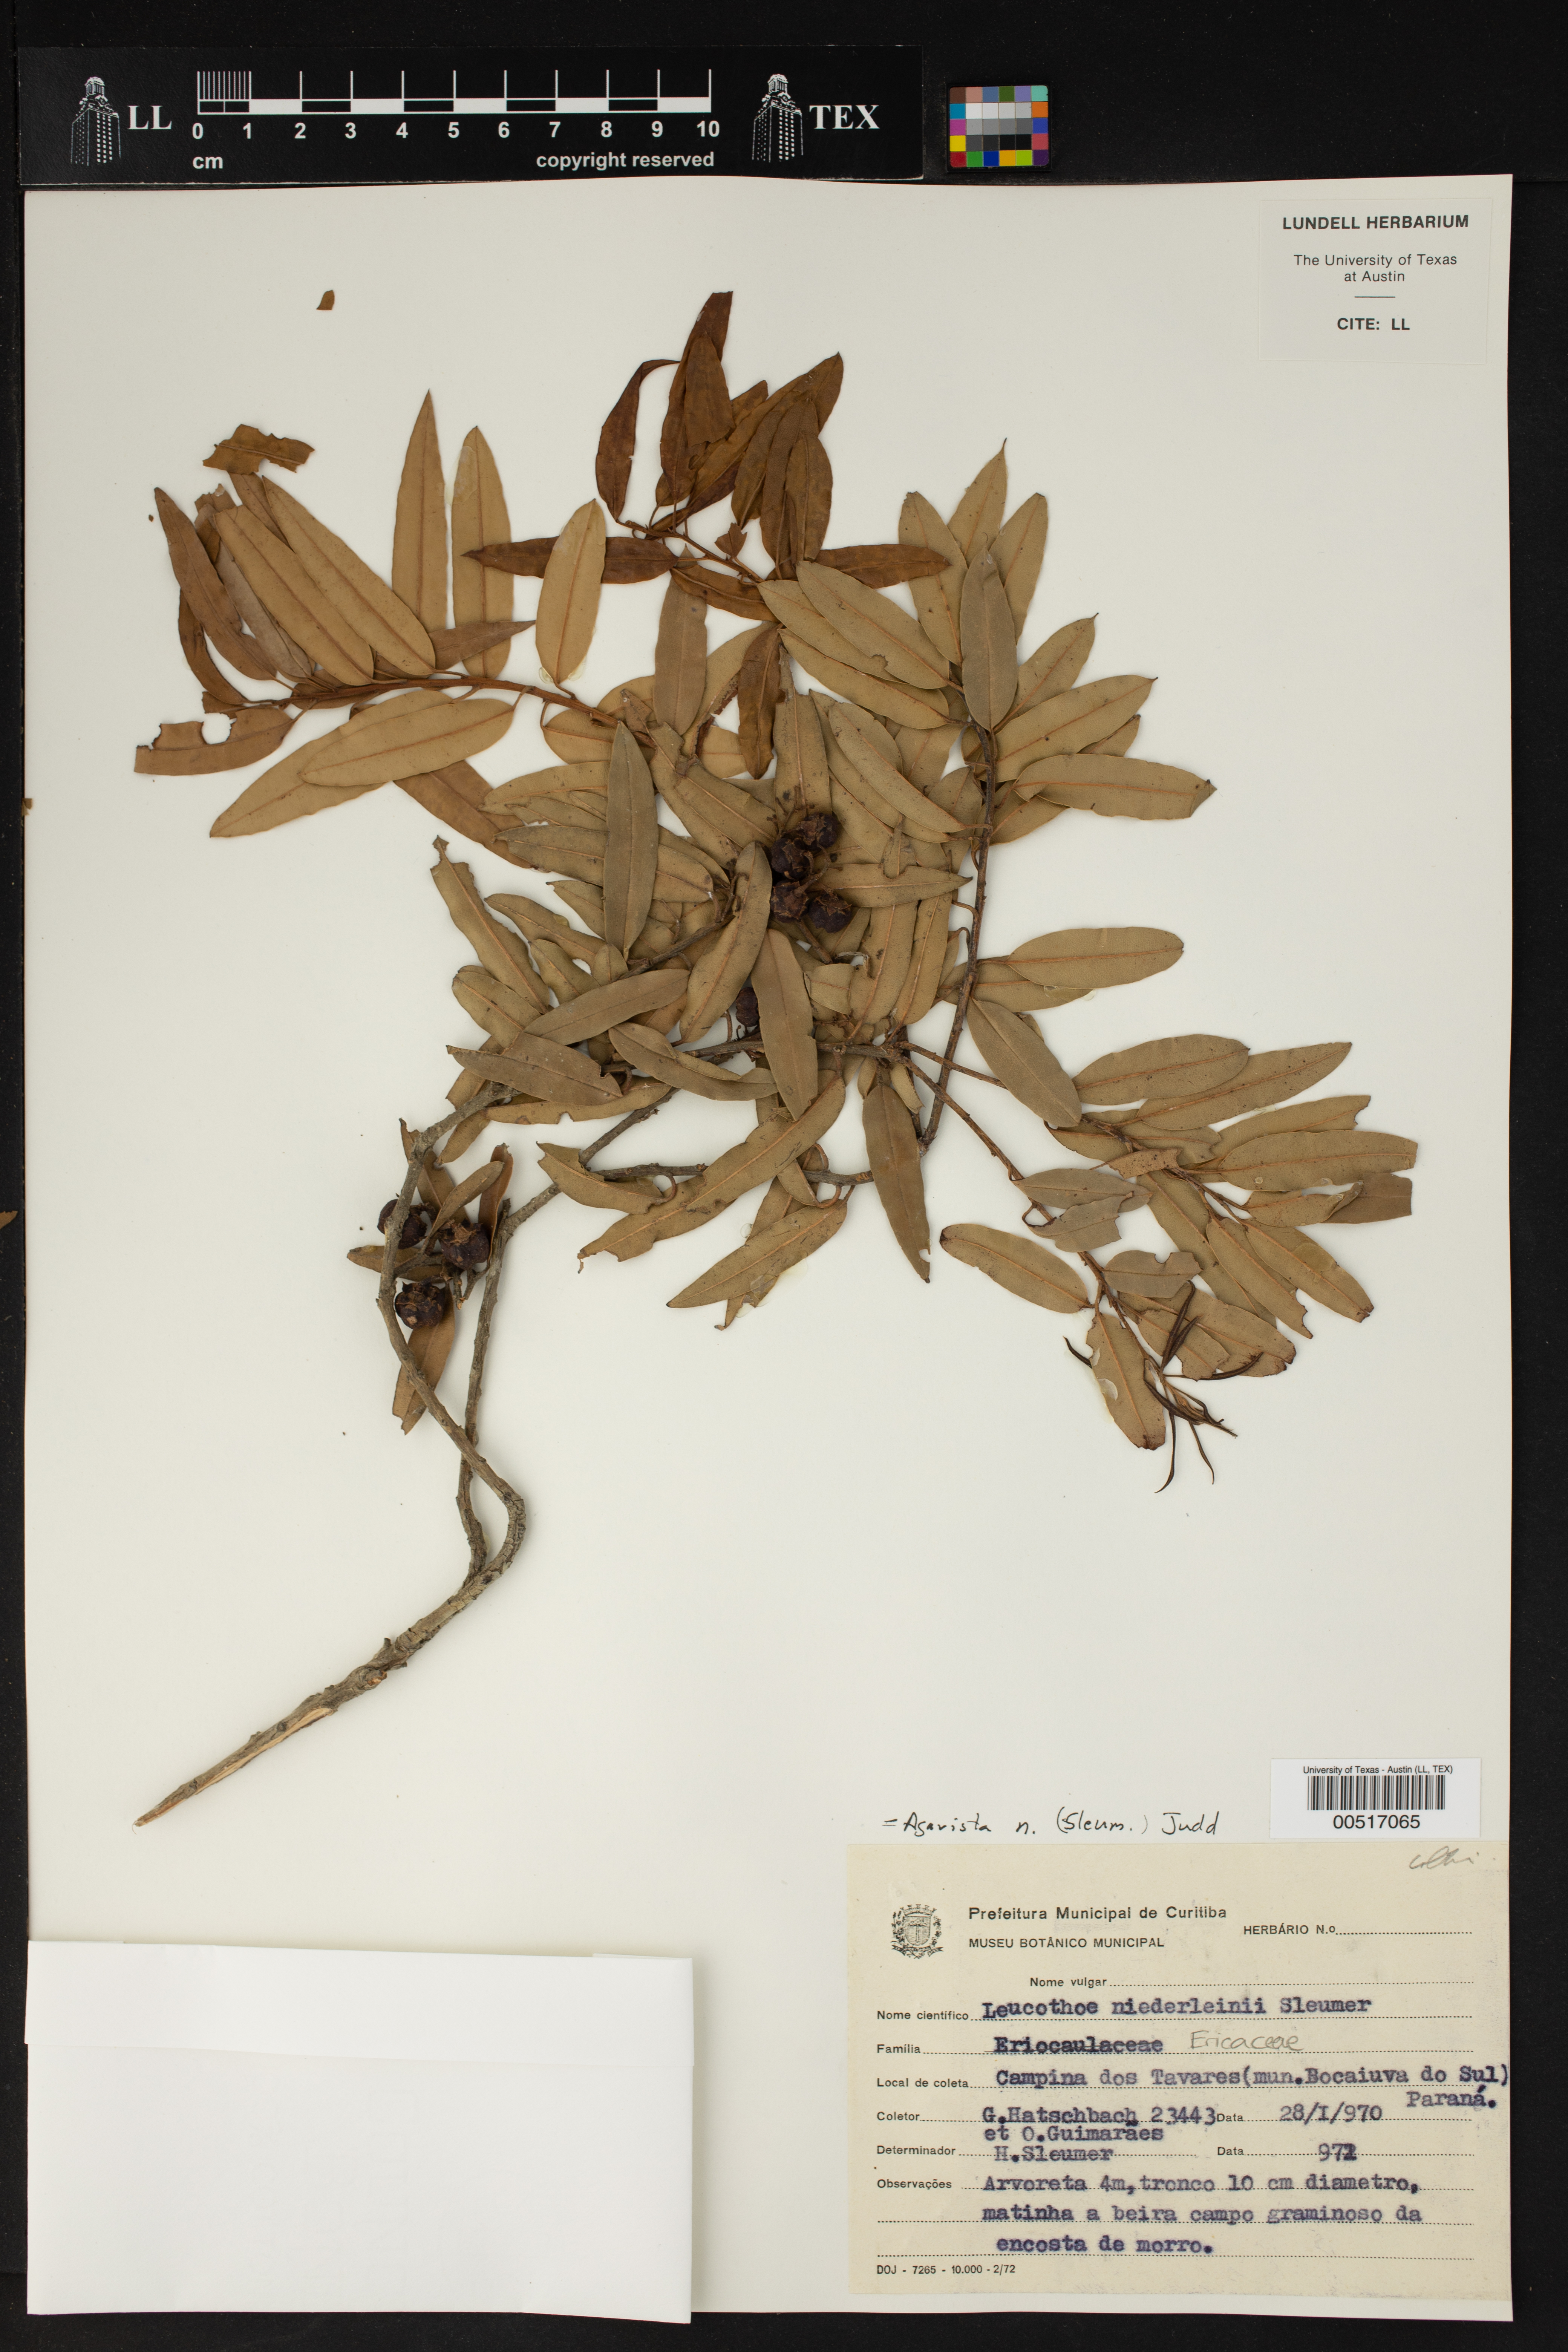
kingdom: Plantae
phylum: Tracheophyta
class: Magnoliopsida
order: Ericales
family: Ericaceae
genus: Agarista
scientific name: Agarista niederleinii
